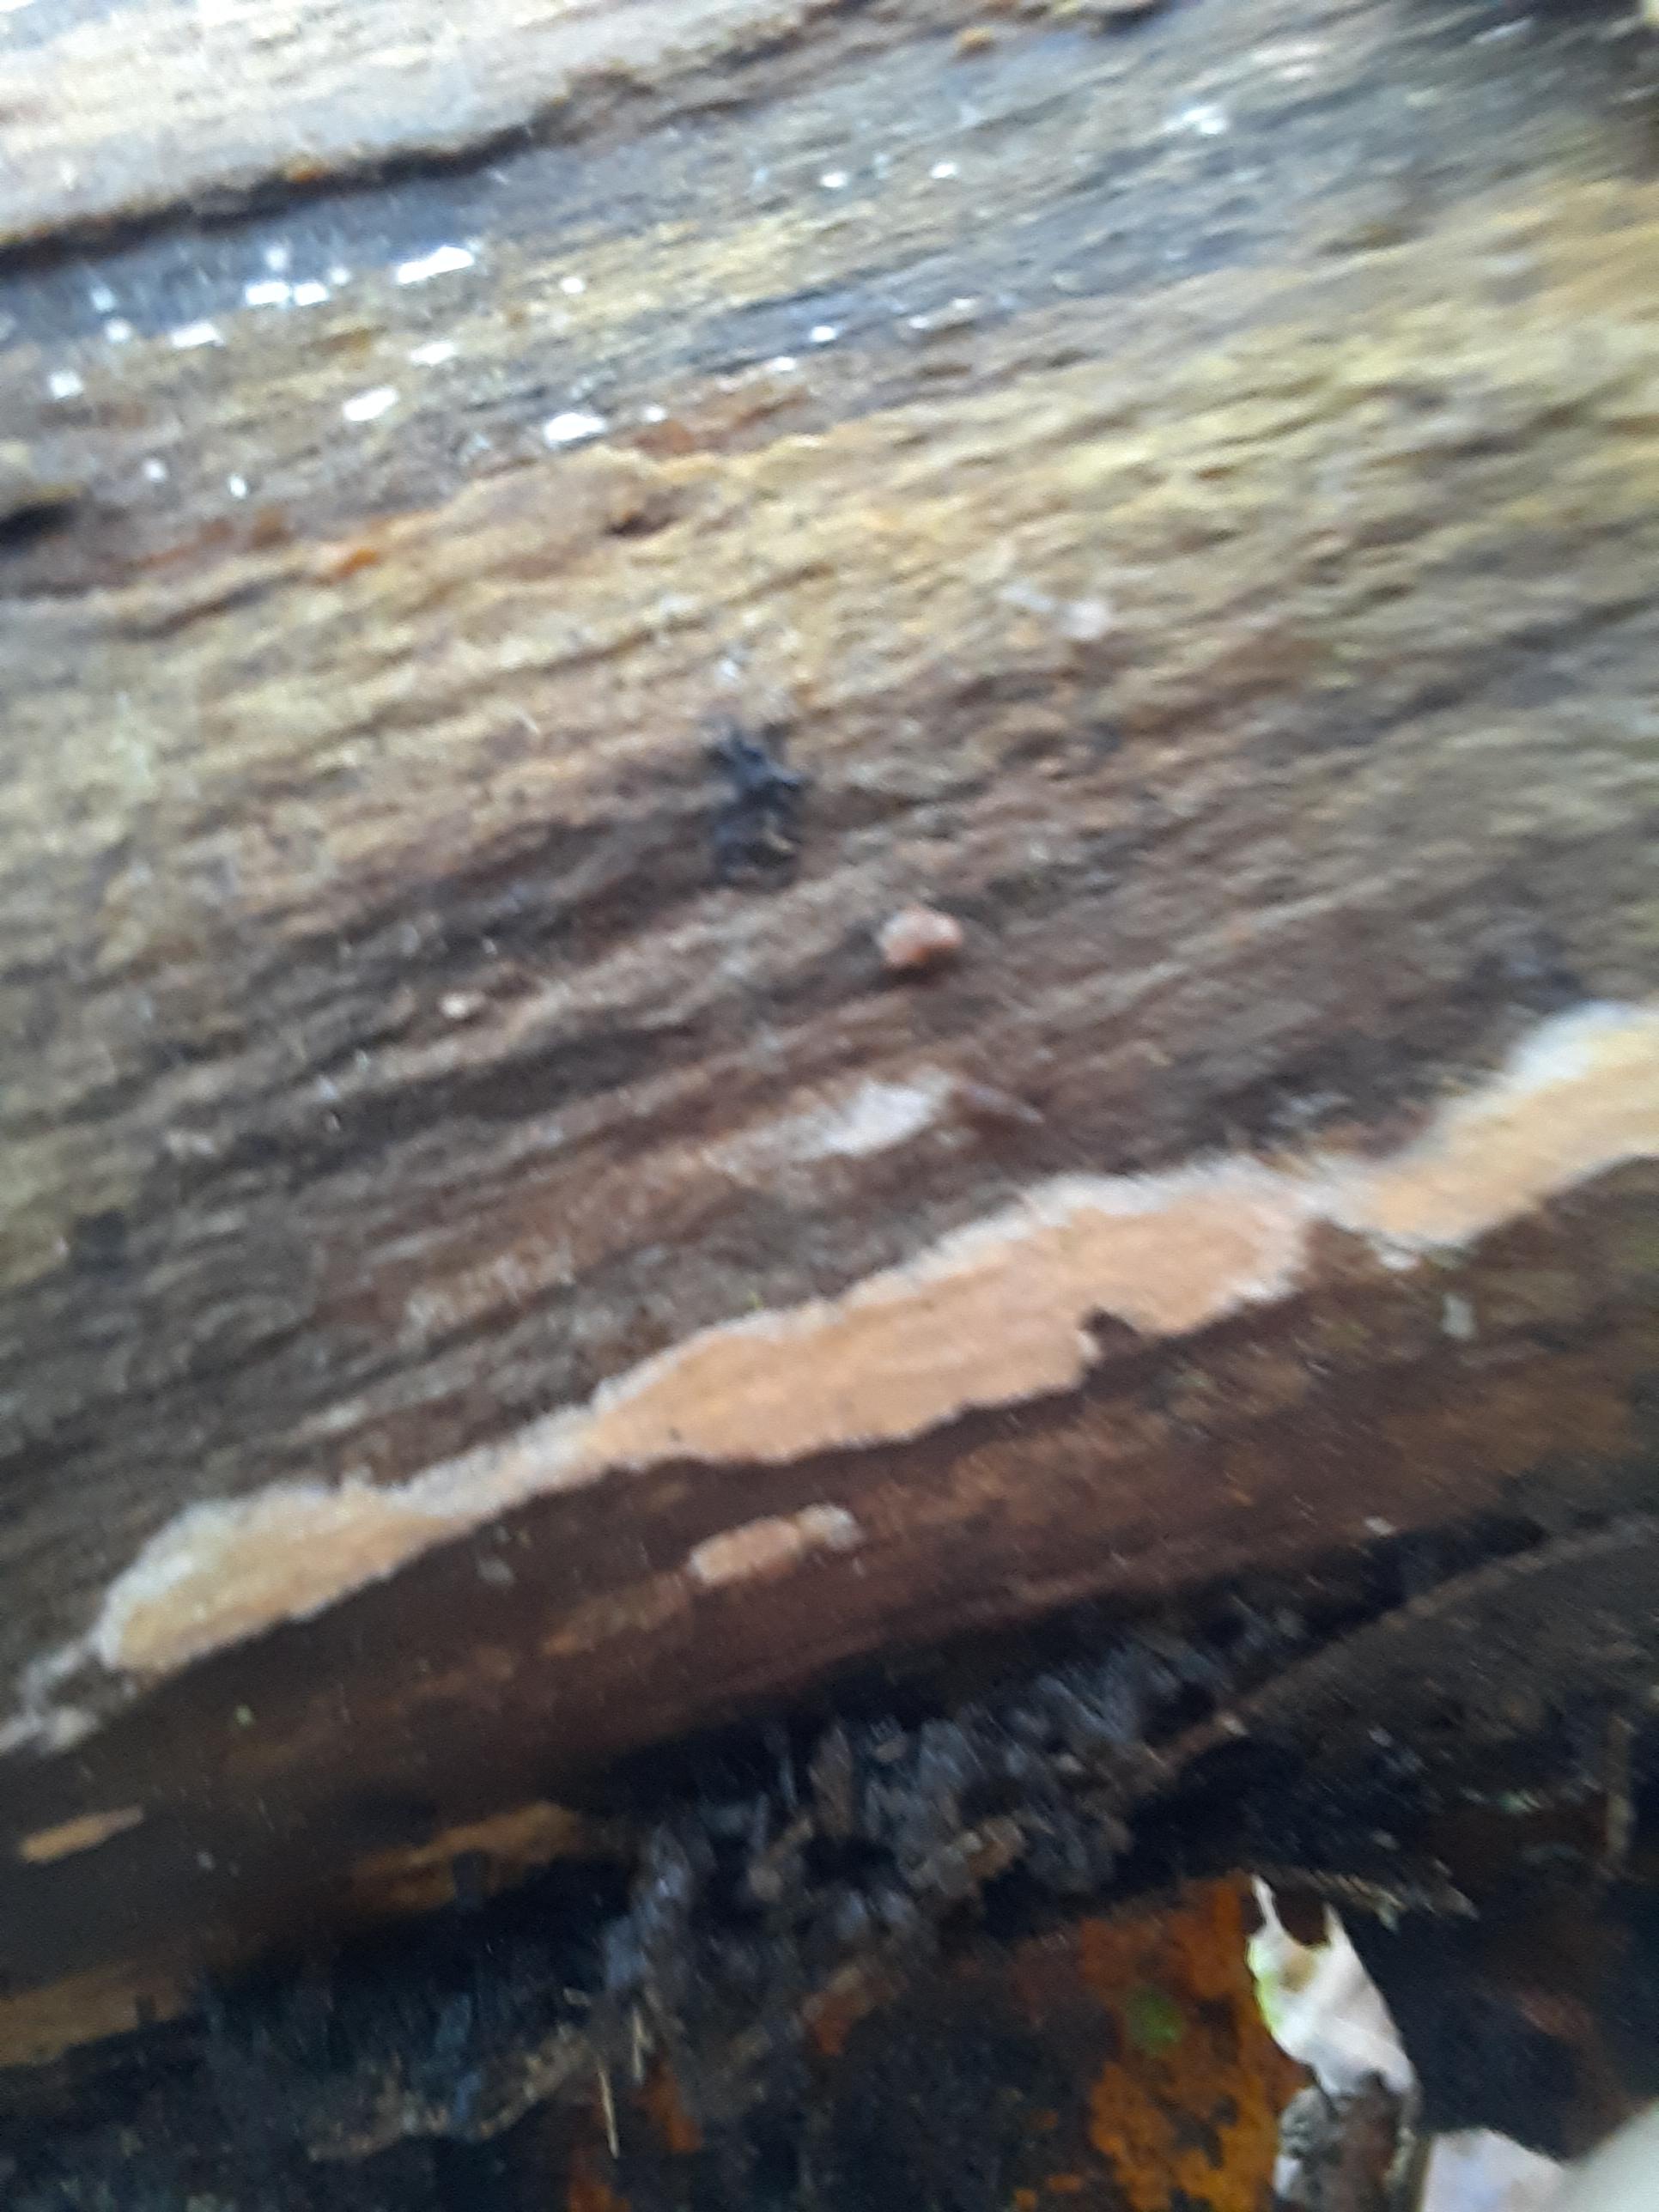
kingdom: Fungi
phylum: Basidiomycota
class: Agaricomycetes
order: Russulales
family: Peniophoraceae
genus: Peniophora
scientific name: Peniophora incarnata
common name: laksefarvet voksskind
